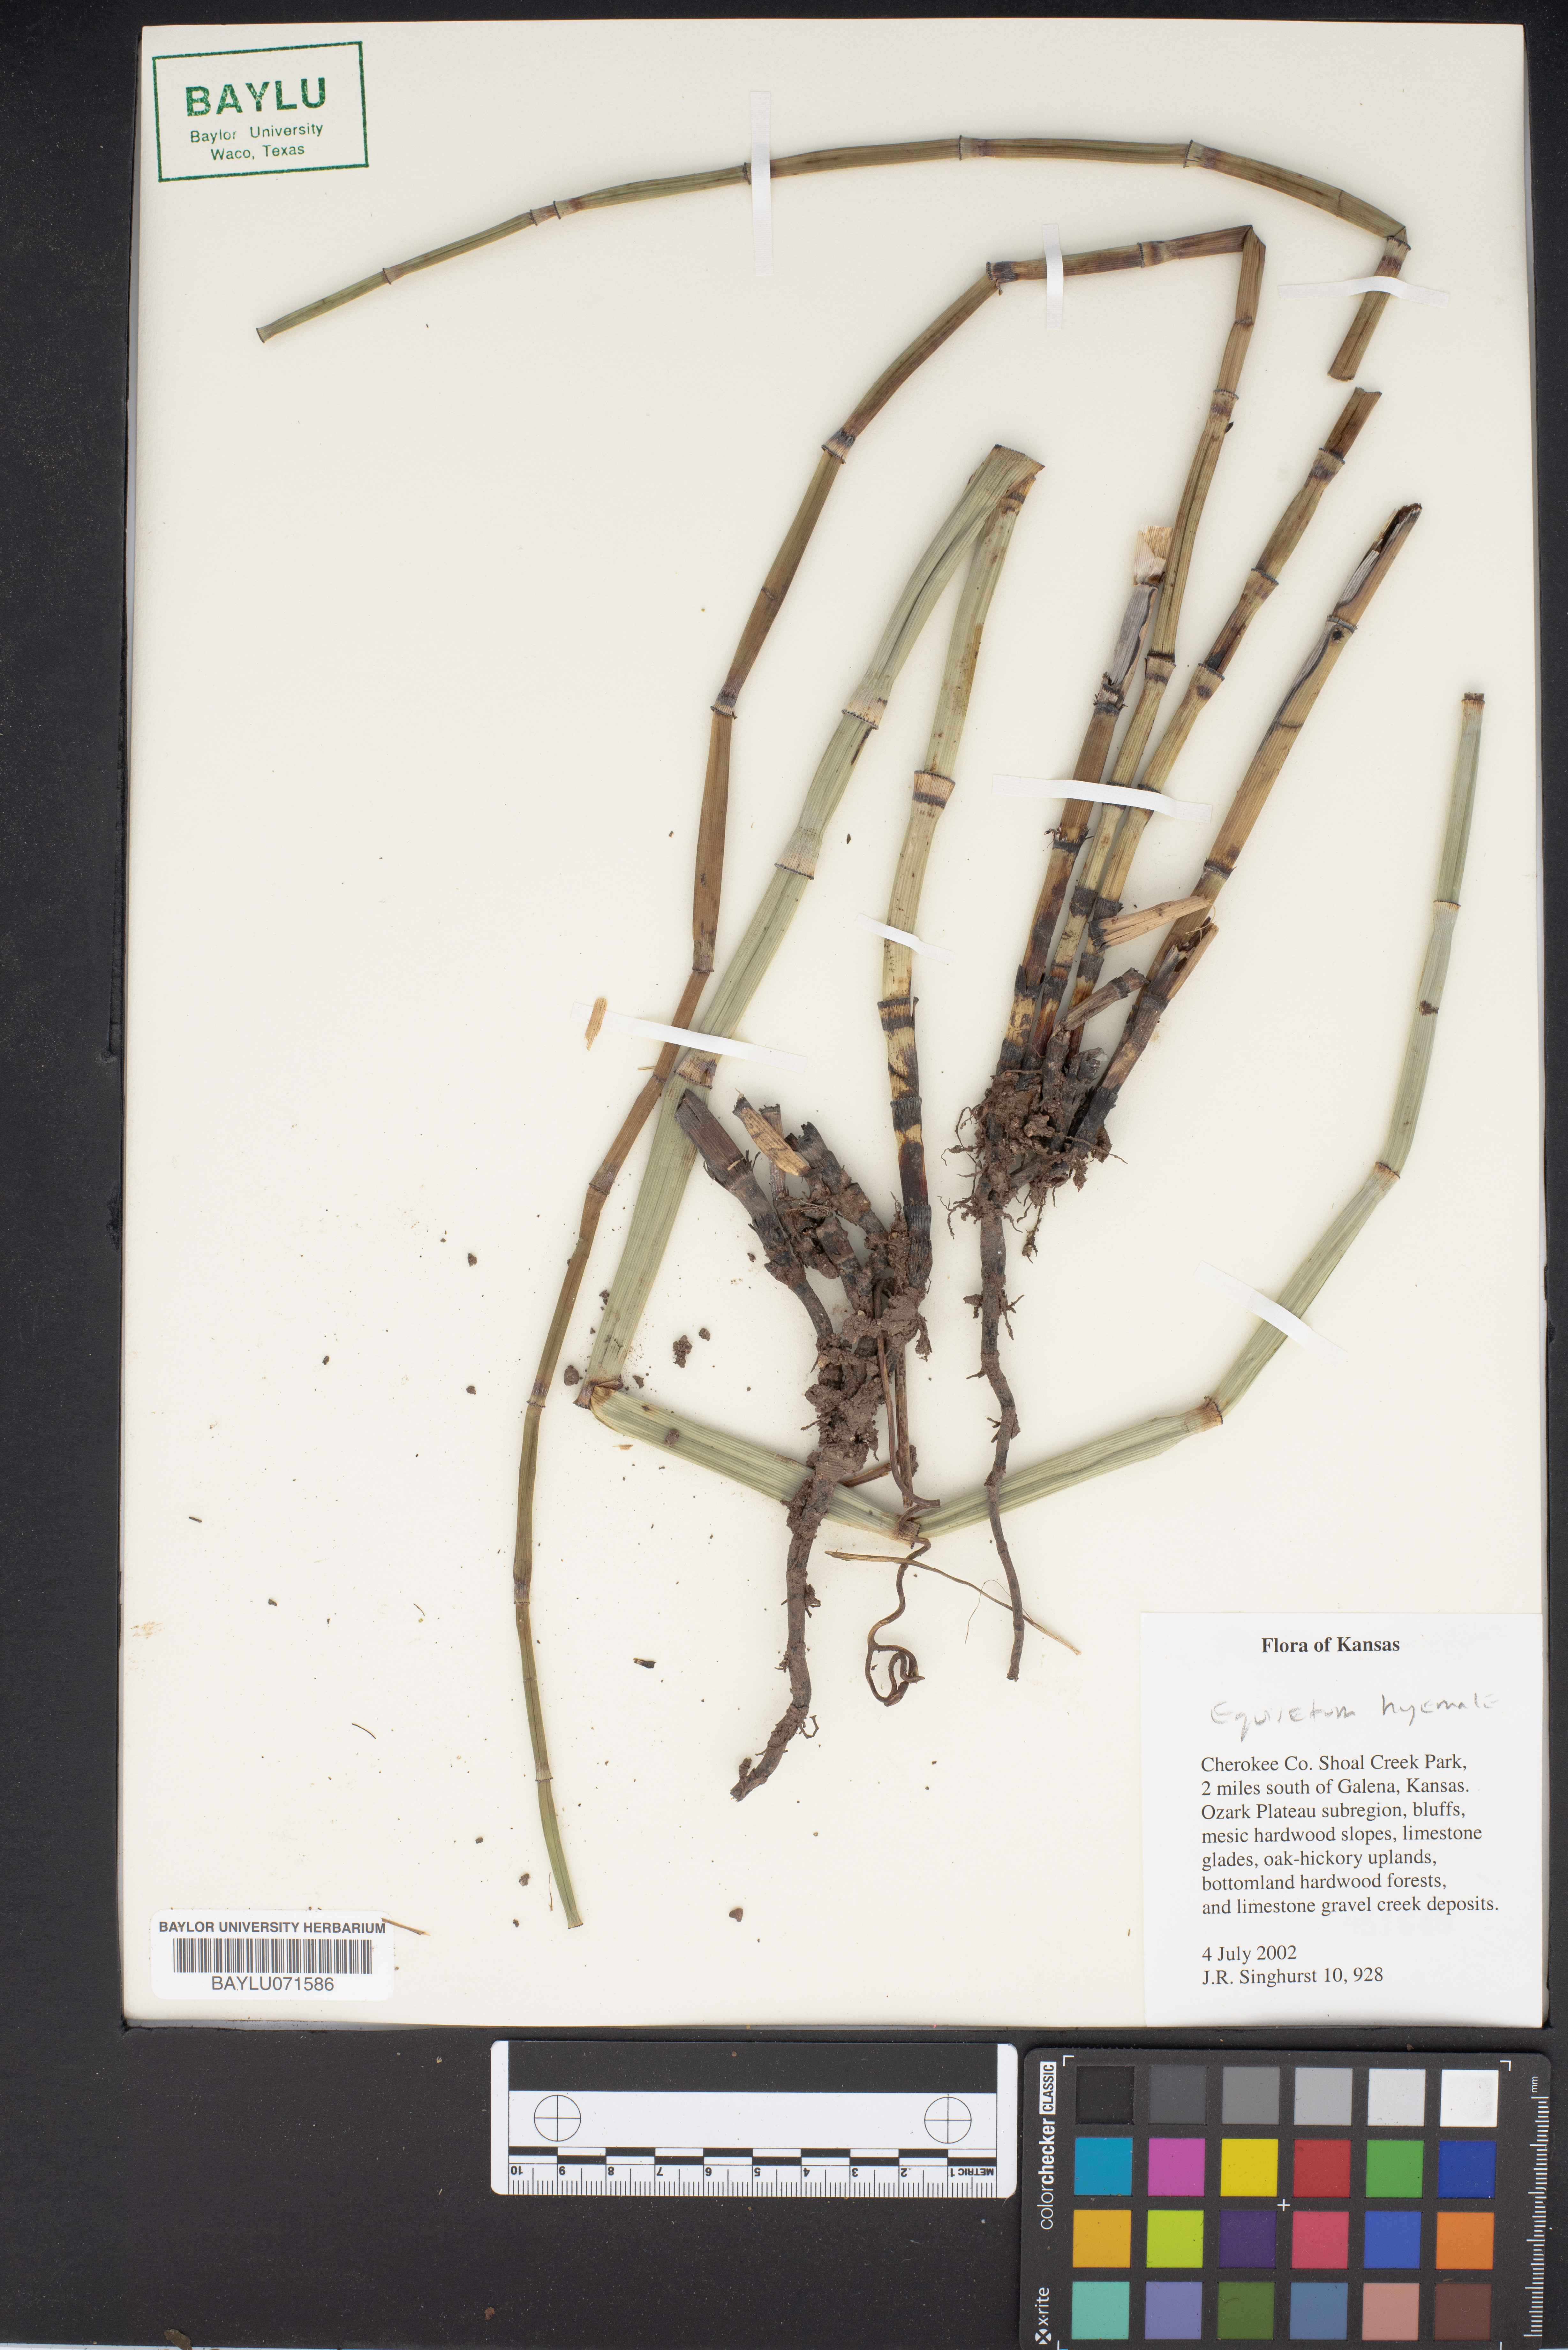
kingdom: Plantae
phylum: Tracheophyta
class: Polypodiopsida
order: Equisetales
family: Equisetaceae
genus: Equisetum
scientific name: Equisetum hyemale
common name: Rough horsetail
